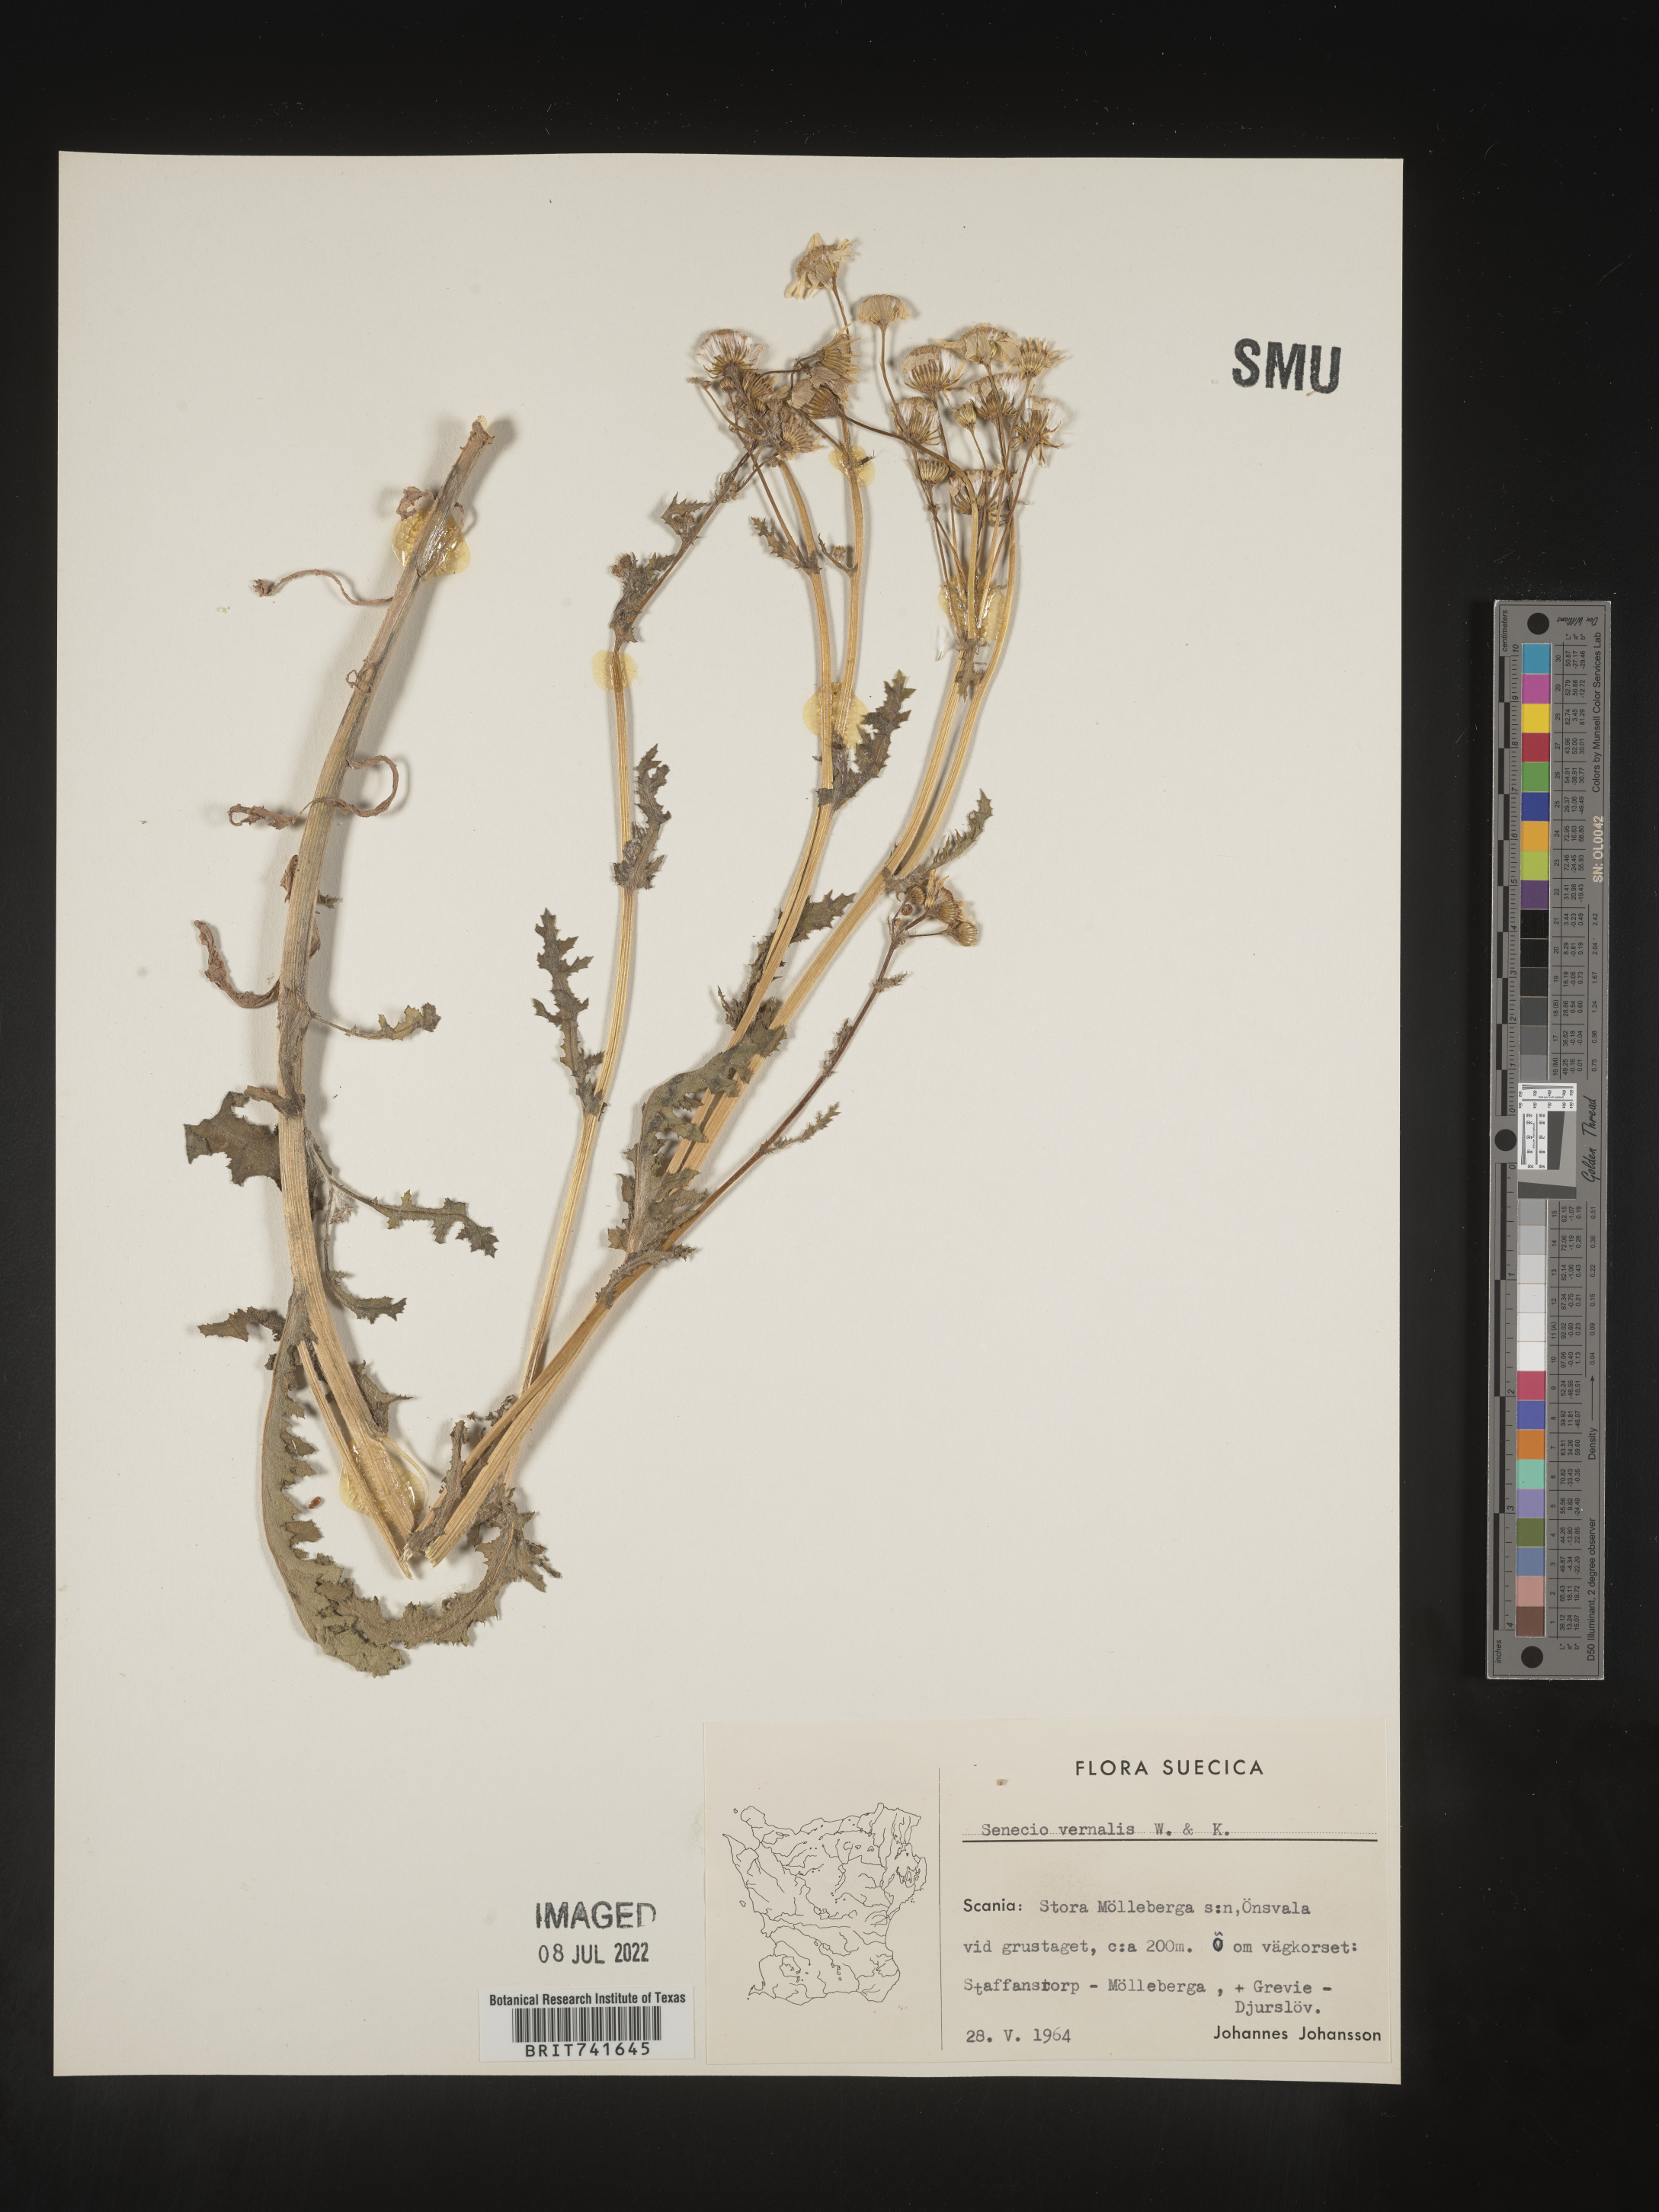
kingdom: Plantae
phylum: Tracheophyta
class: Magnoliopsida
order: Asterales
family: Asteraceae
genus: Senecio
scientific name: Senecio vernalis
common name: Eastern groundsel
